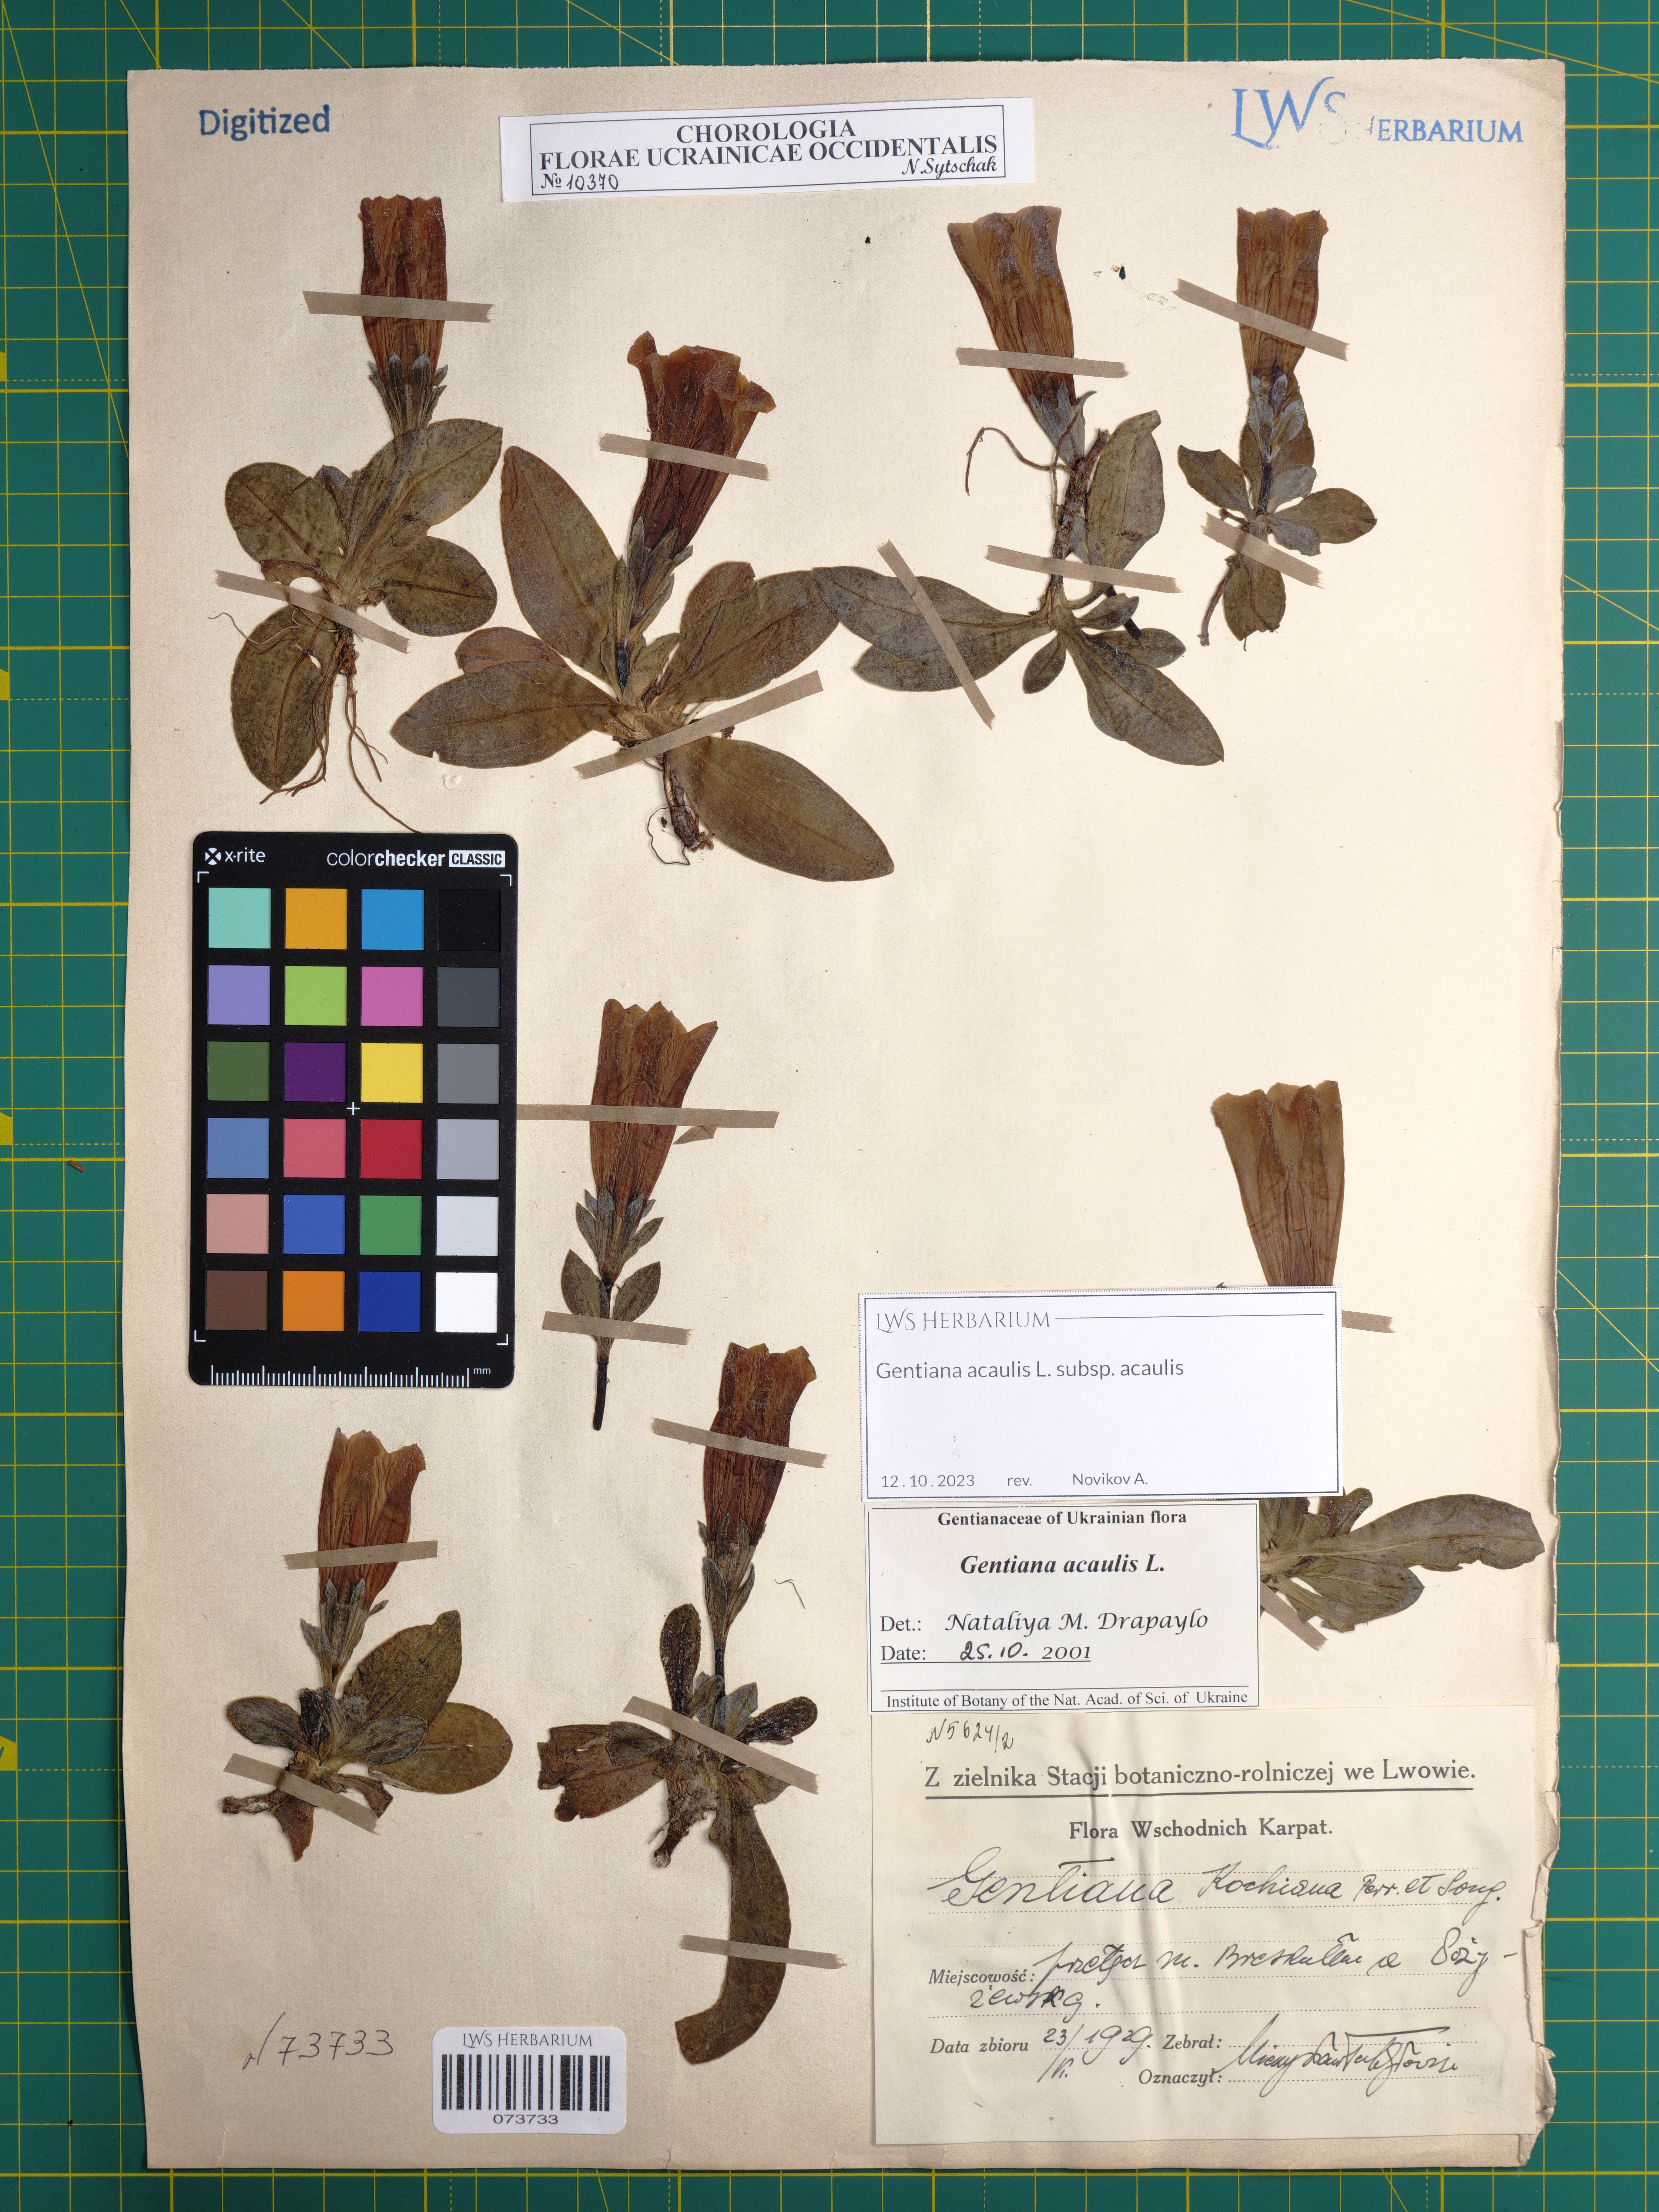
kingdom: Plantae
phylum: Tracheophyta
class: Magnoliopsida
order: Gentianales
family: Gentianaceae
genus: Gentiana
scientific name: Gentiana acaulis
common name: Trumpet gentian
